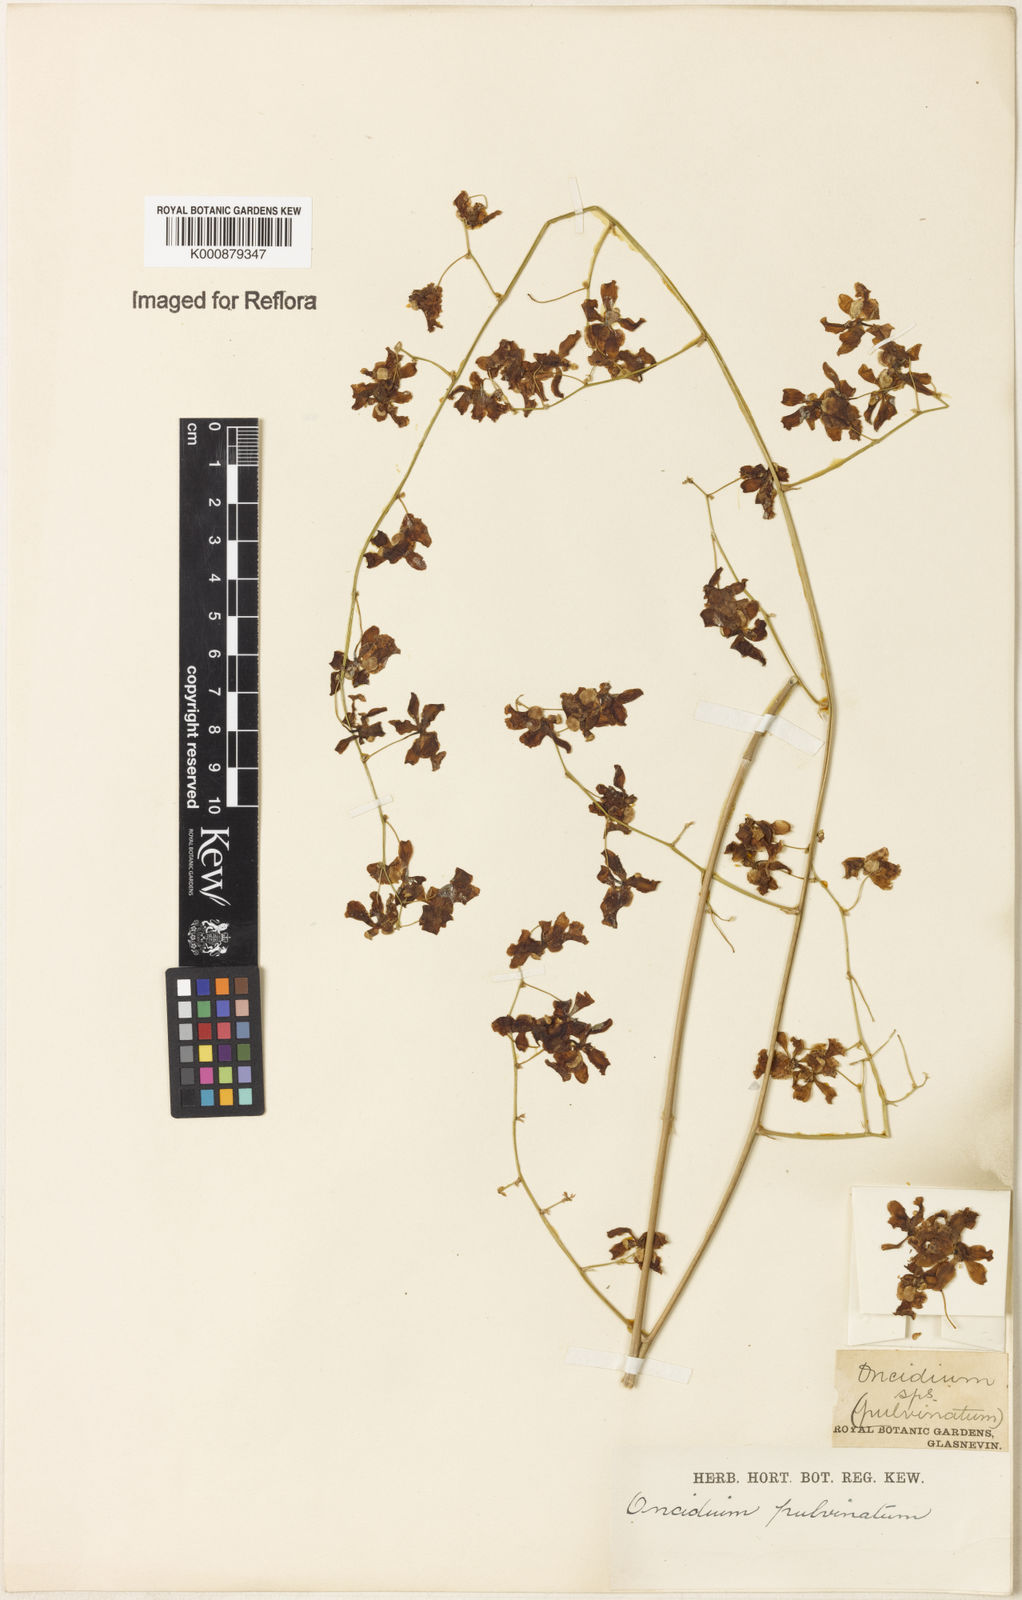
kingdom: Plantae
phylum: Tracheophyta
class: Liliopsida
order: Asparagales
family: Orchidaceae
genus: Grandiphyllum
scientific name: Grandiphyllum divaricatum
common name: Mule-ear orchid
